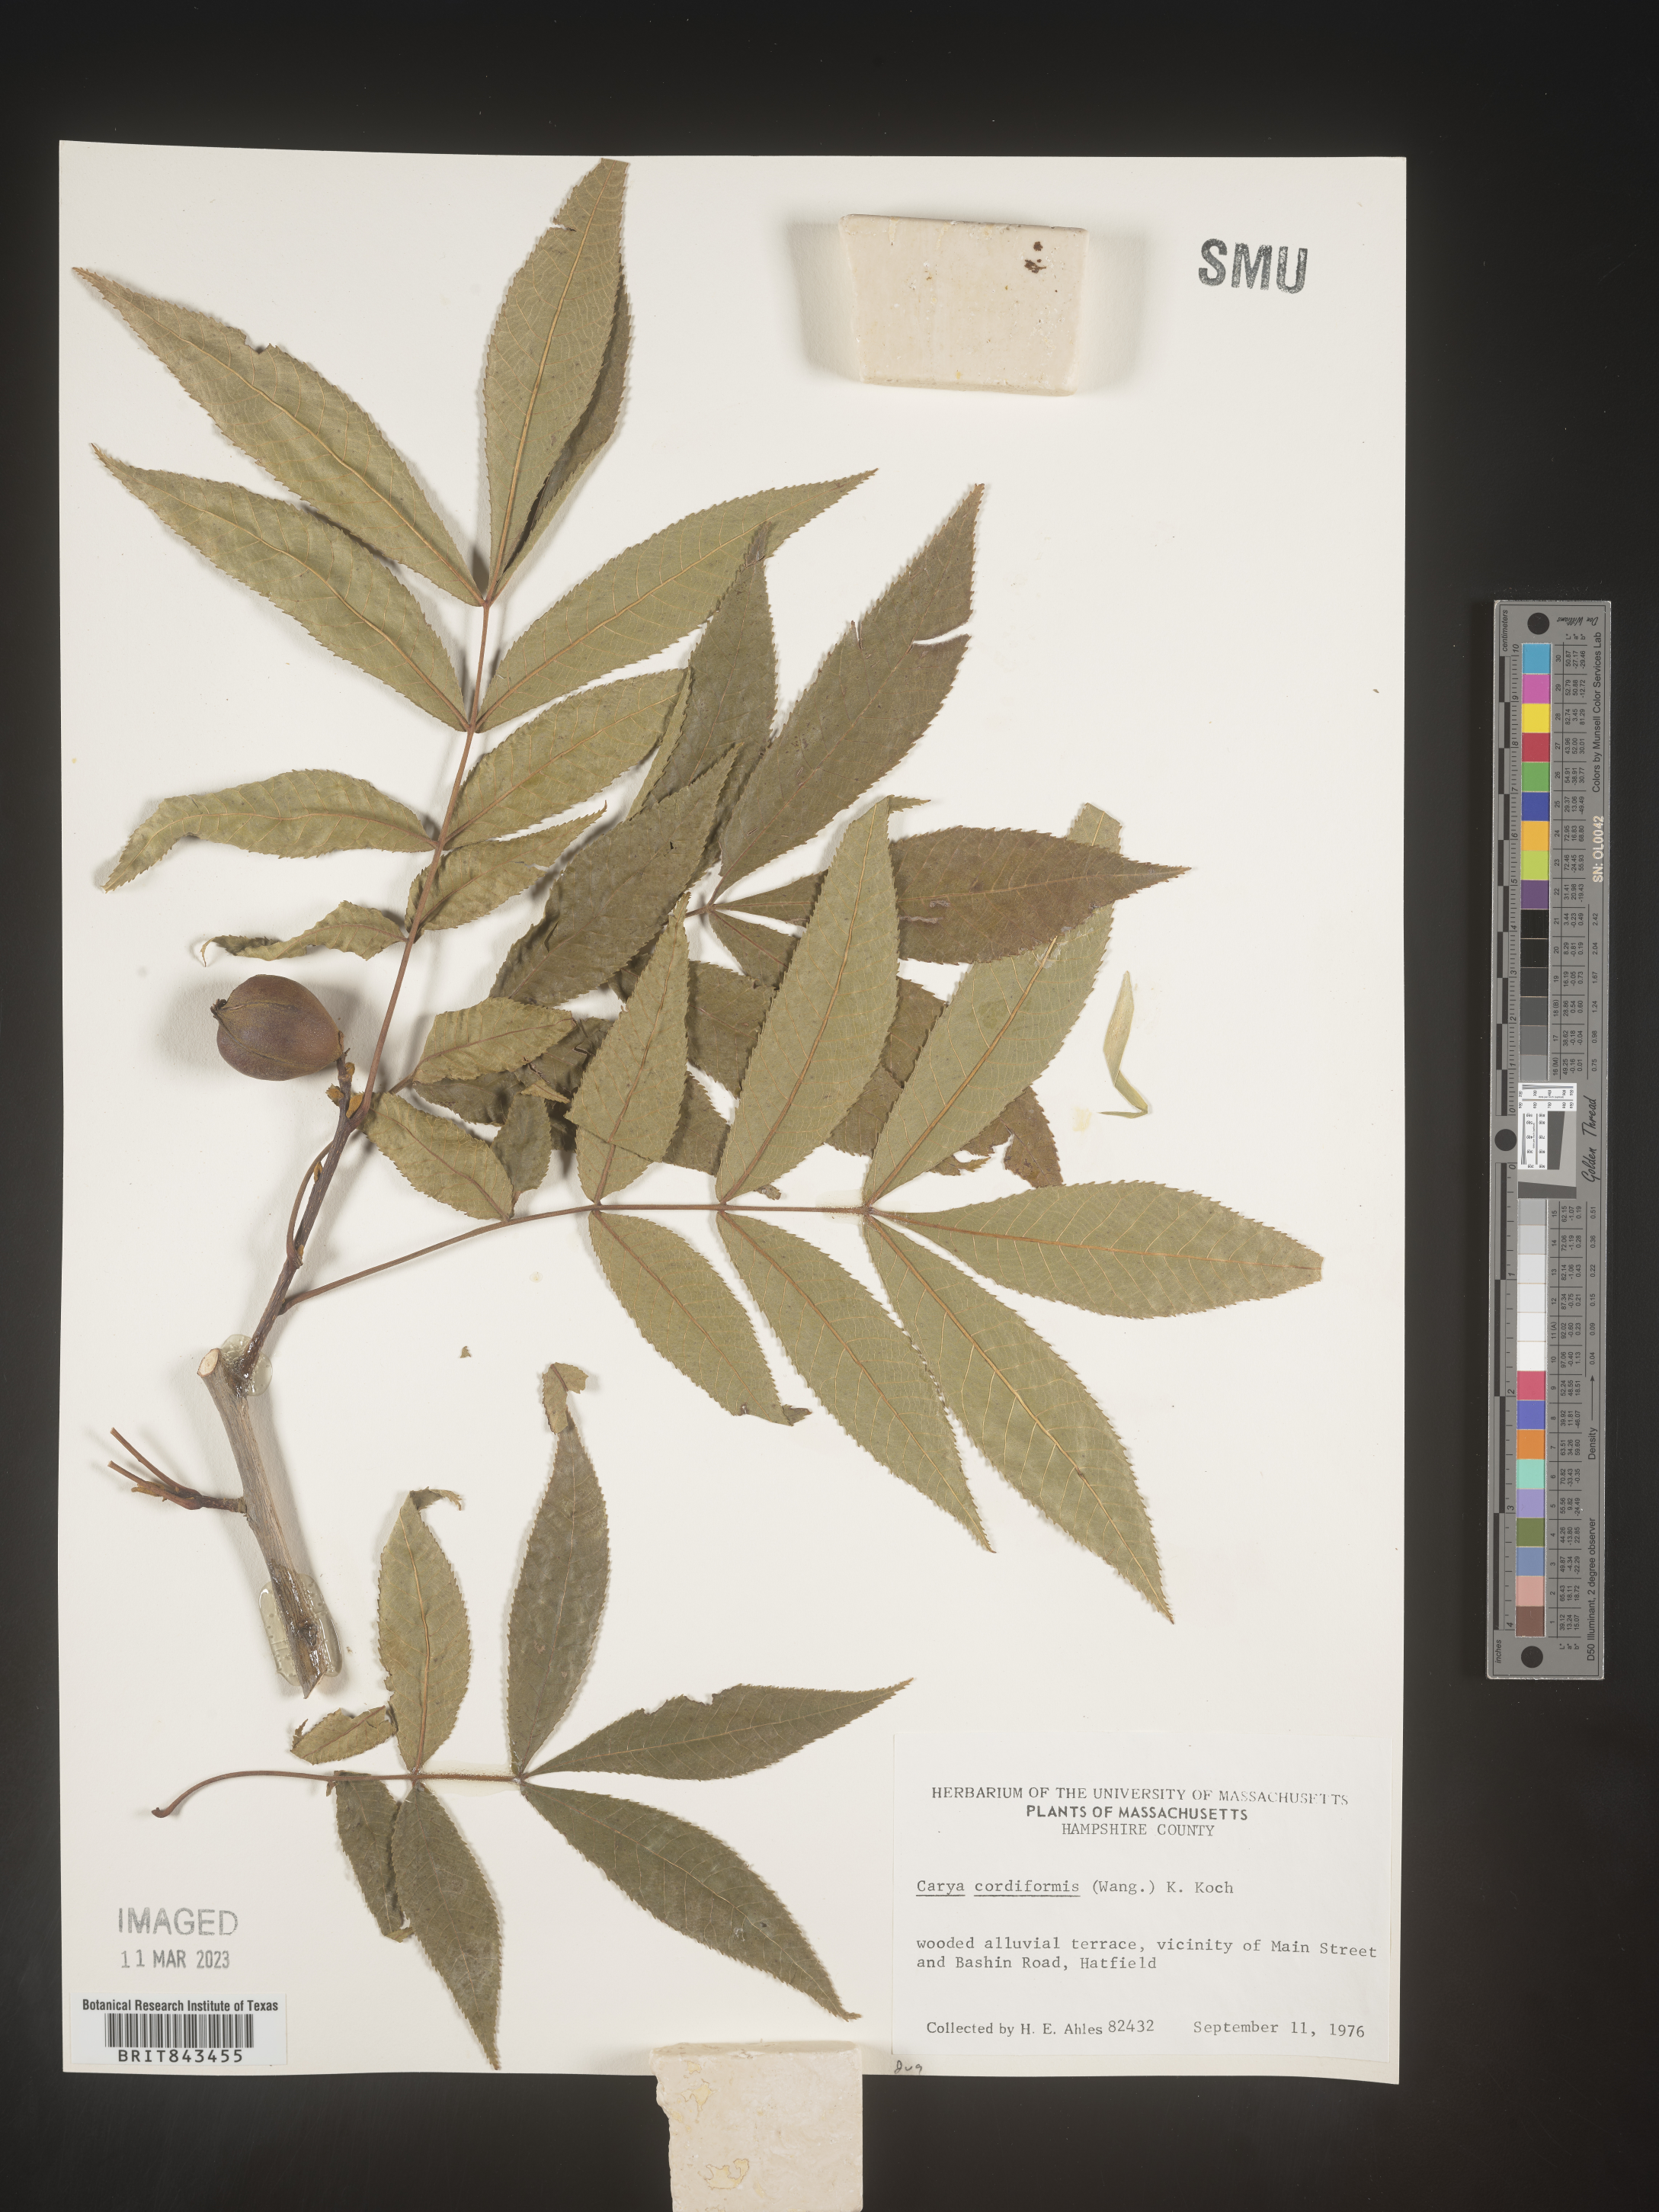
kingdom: Plantae
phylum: Tracheophyta
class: Magnoliopsida
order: Fagales
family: Juglandaceae
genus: Carya
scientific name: Carya cordiformis
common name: Bitternut hickory
